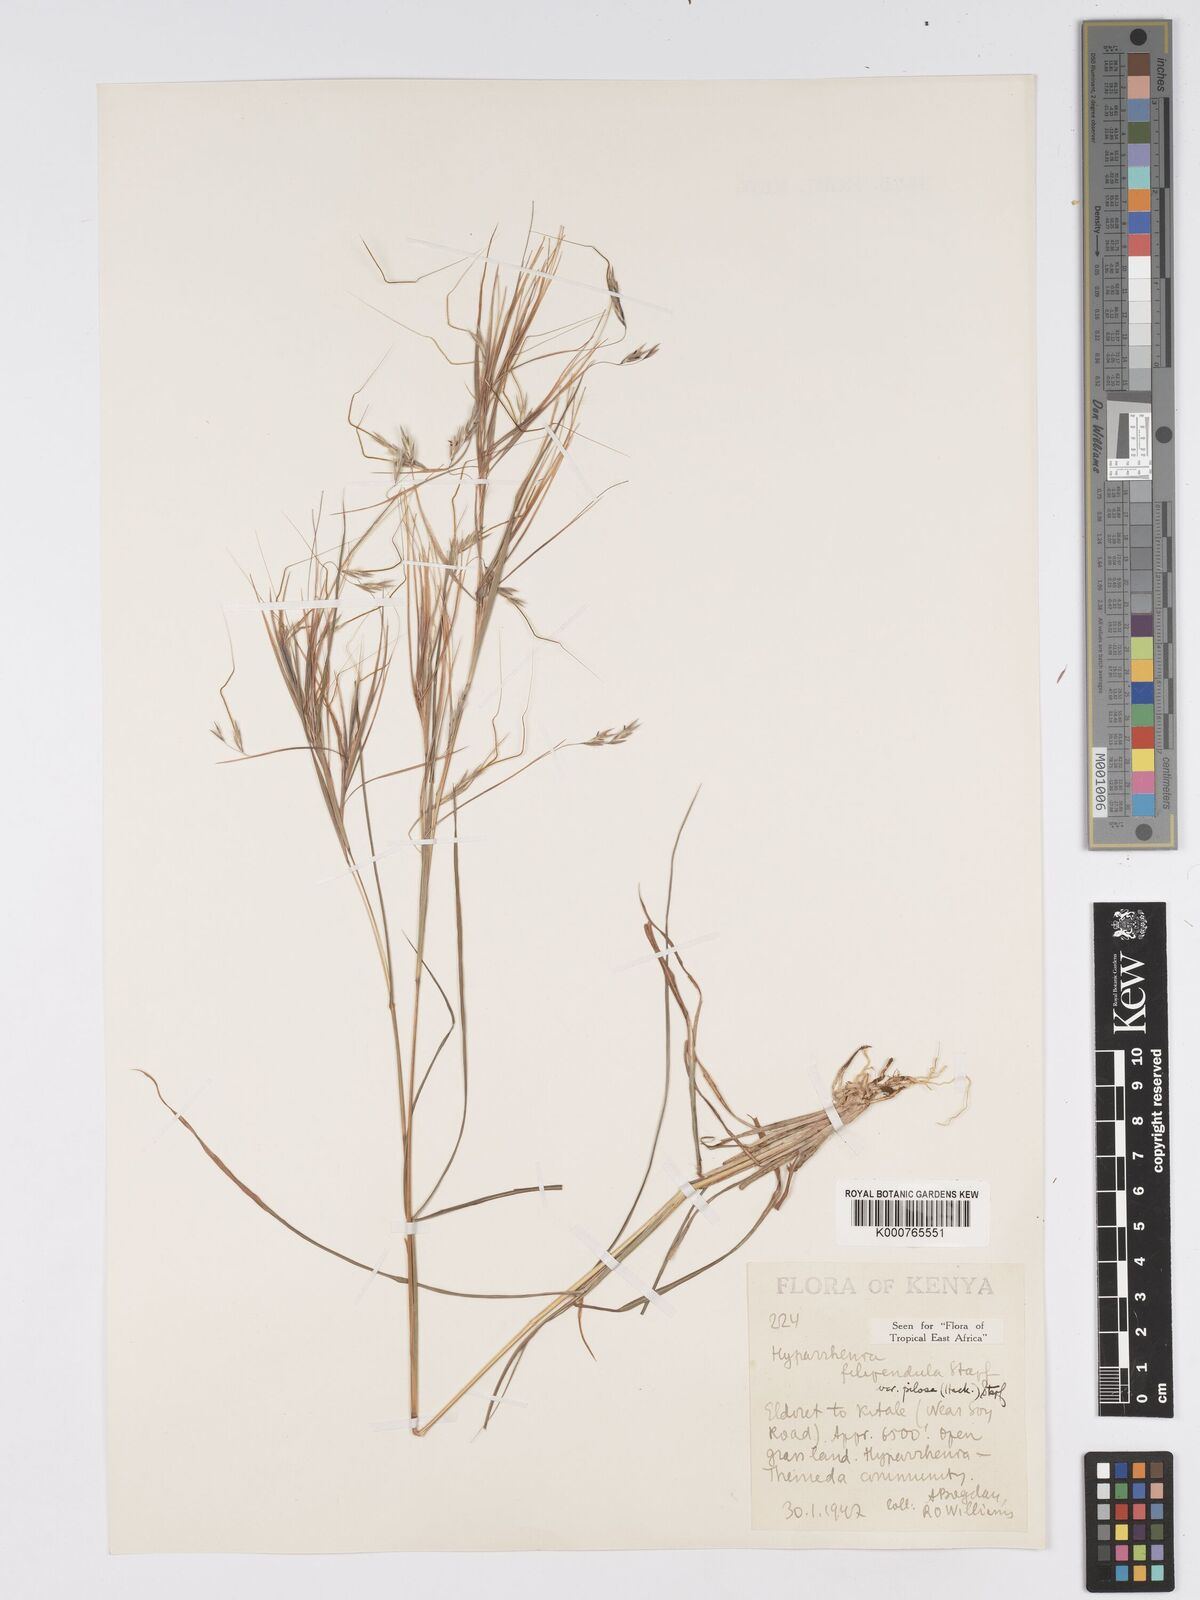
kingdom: Plantae
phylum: Tracheophyta
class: Liliopsida
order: Poales
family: Poaceae
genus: Hyparrhenia
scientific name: Hyparrhenia filipendula
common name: Tambookie grass
